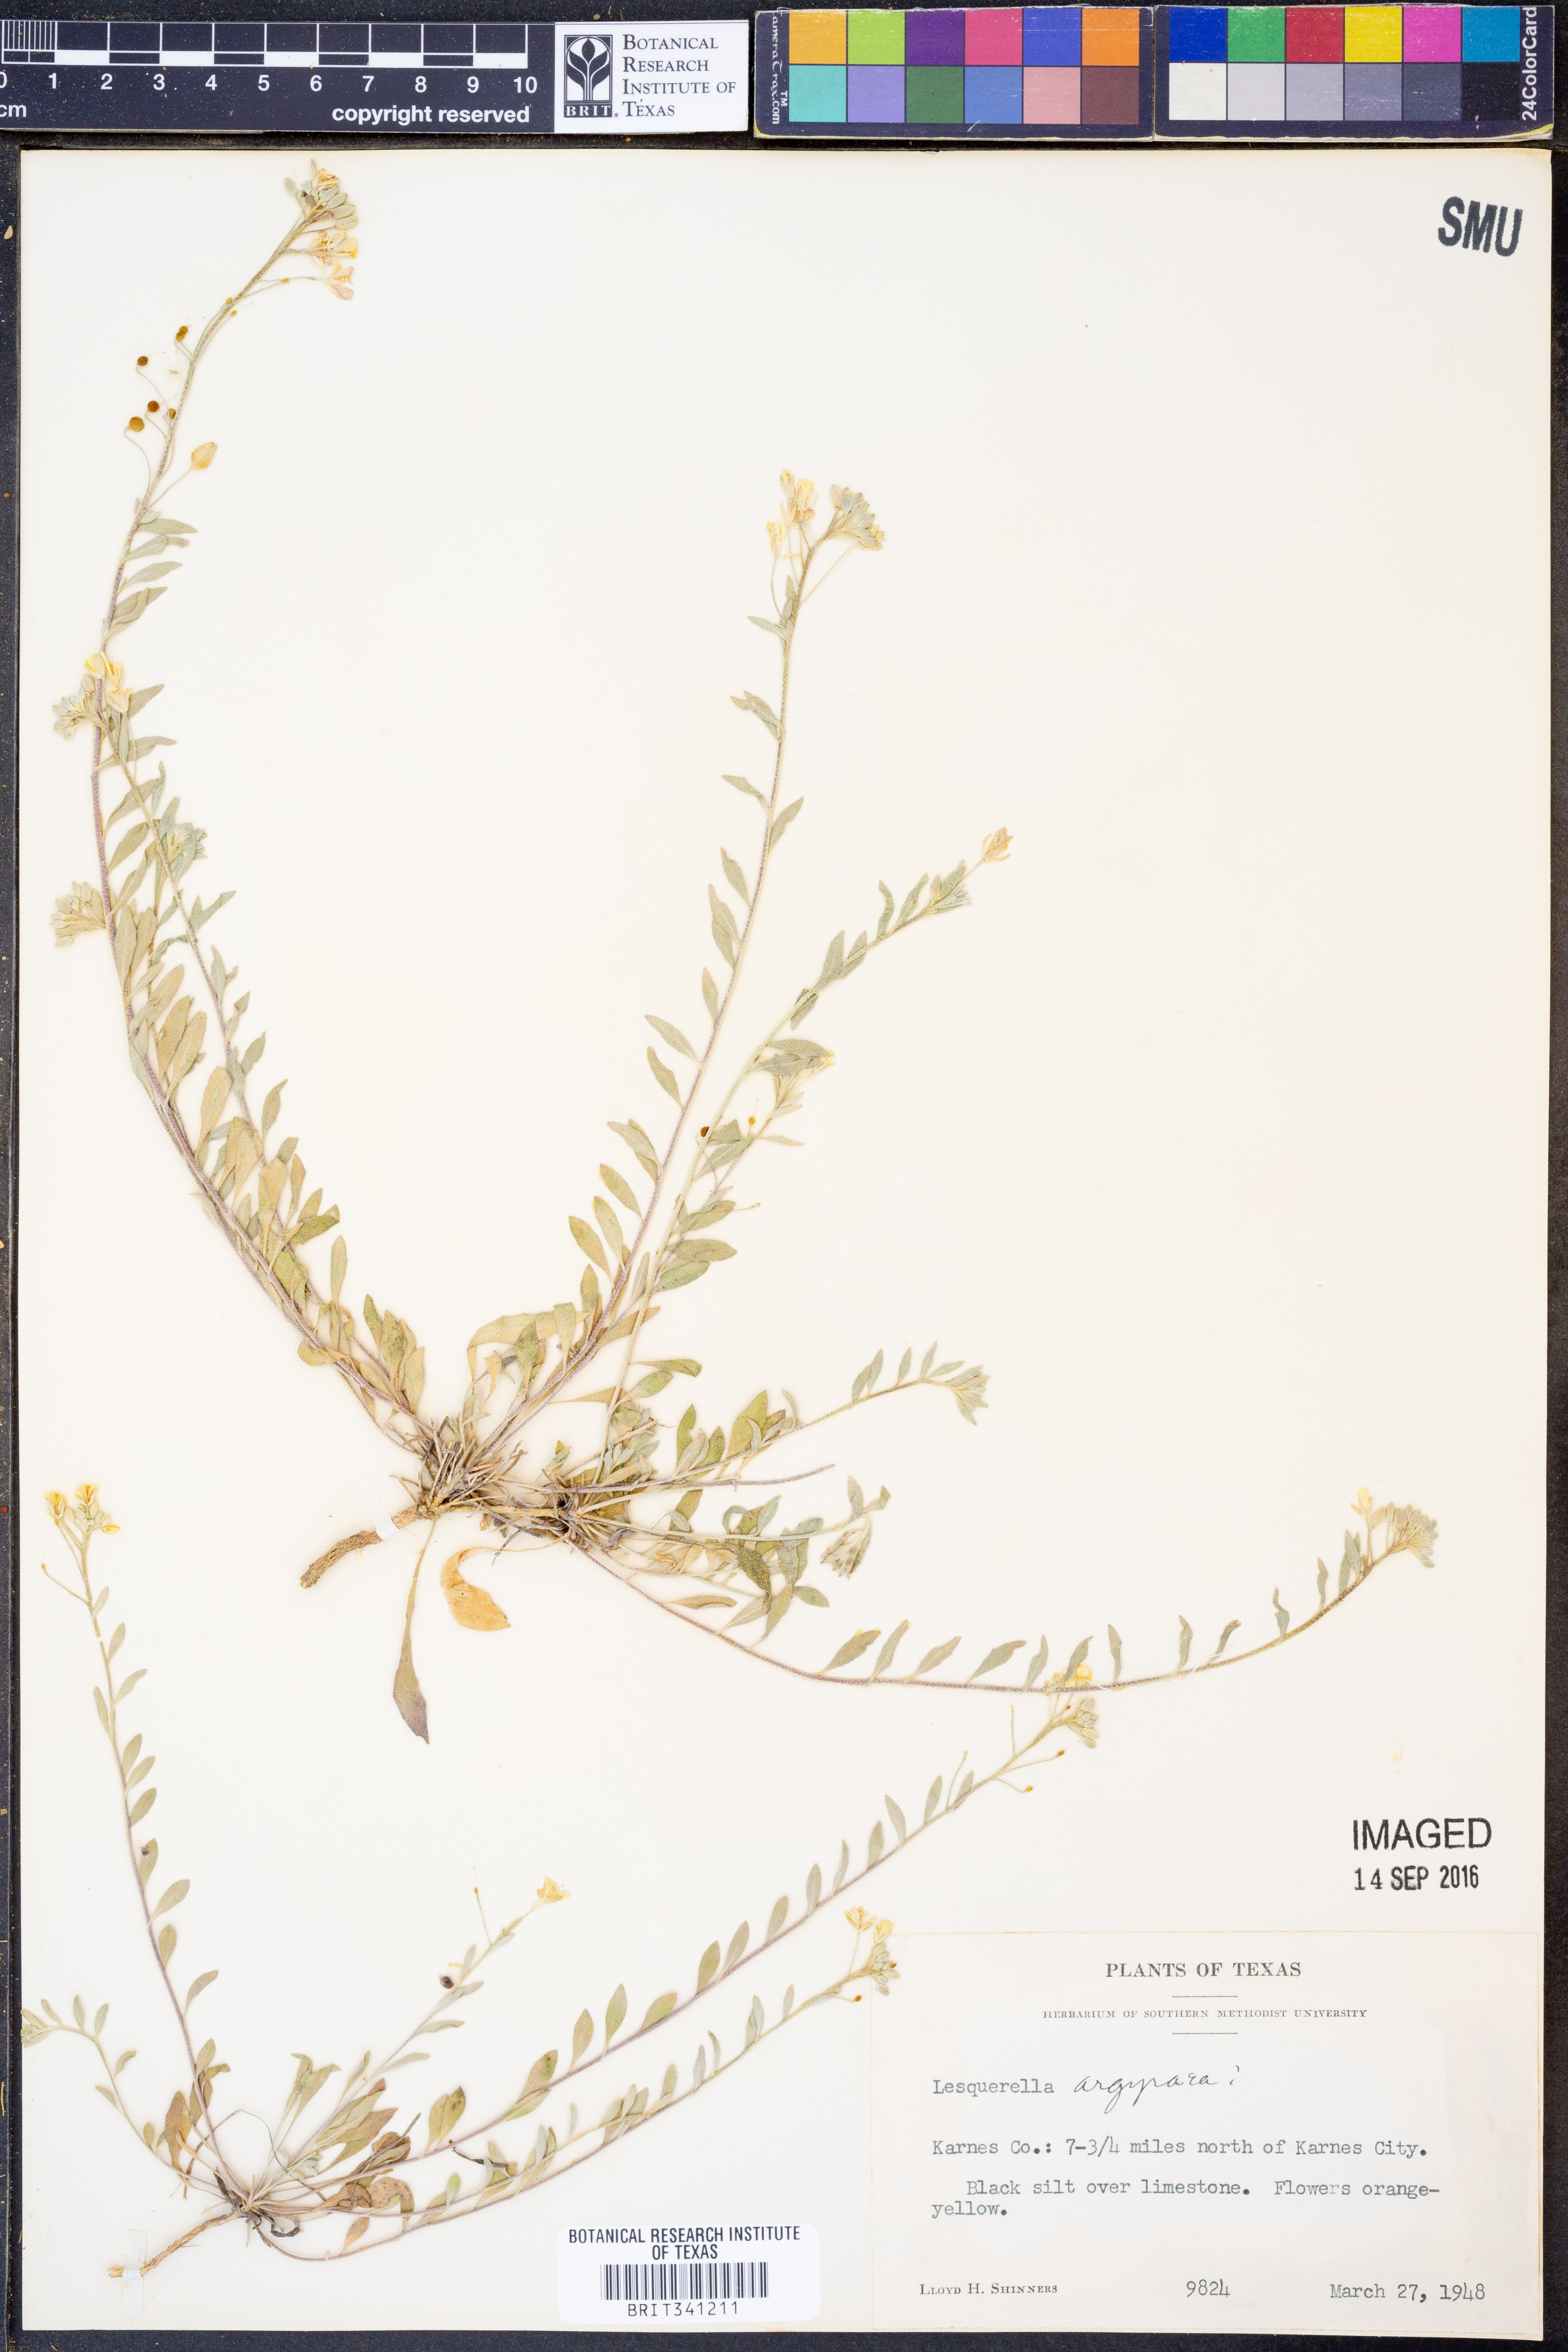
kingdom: Plantae
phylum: Tracheophyta
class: Magnoliopsida
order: Brassicales
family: Brassicaceae
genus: Physaria
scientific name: Physaria argyraea
